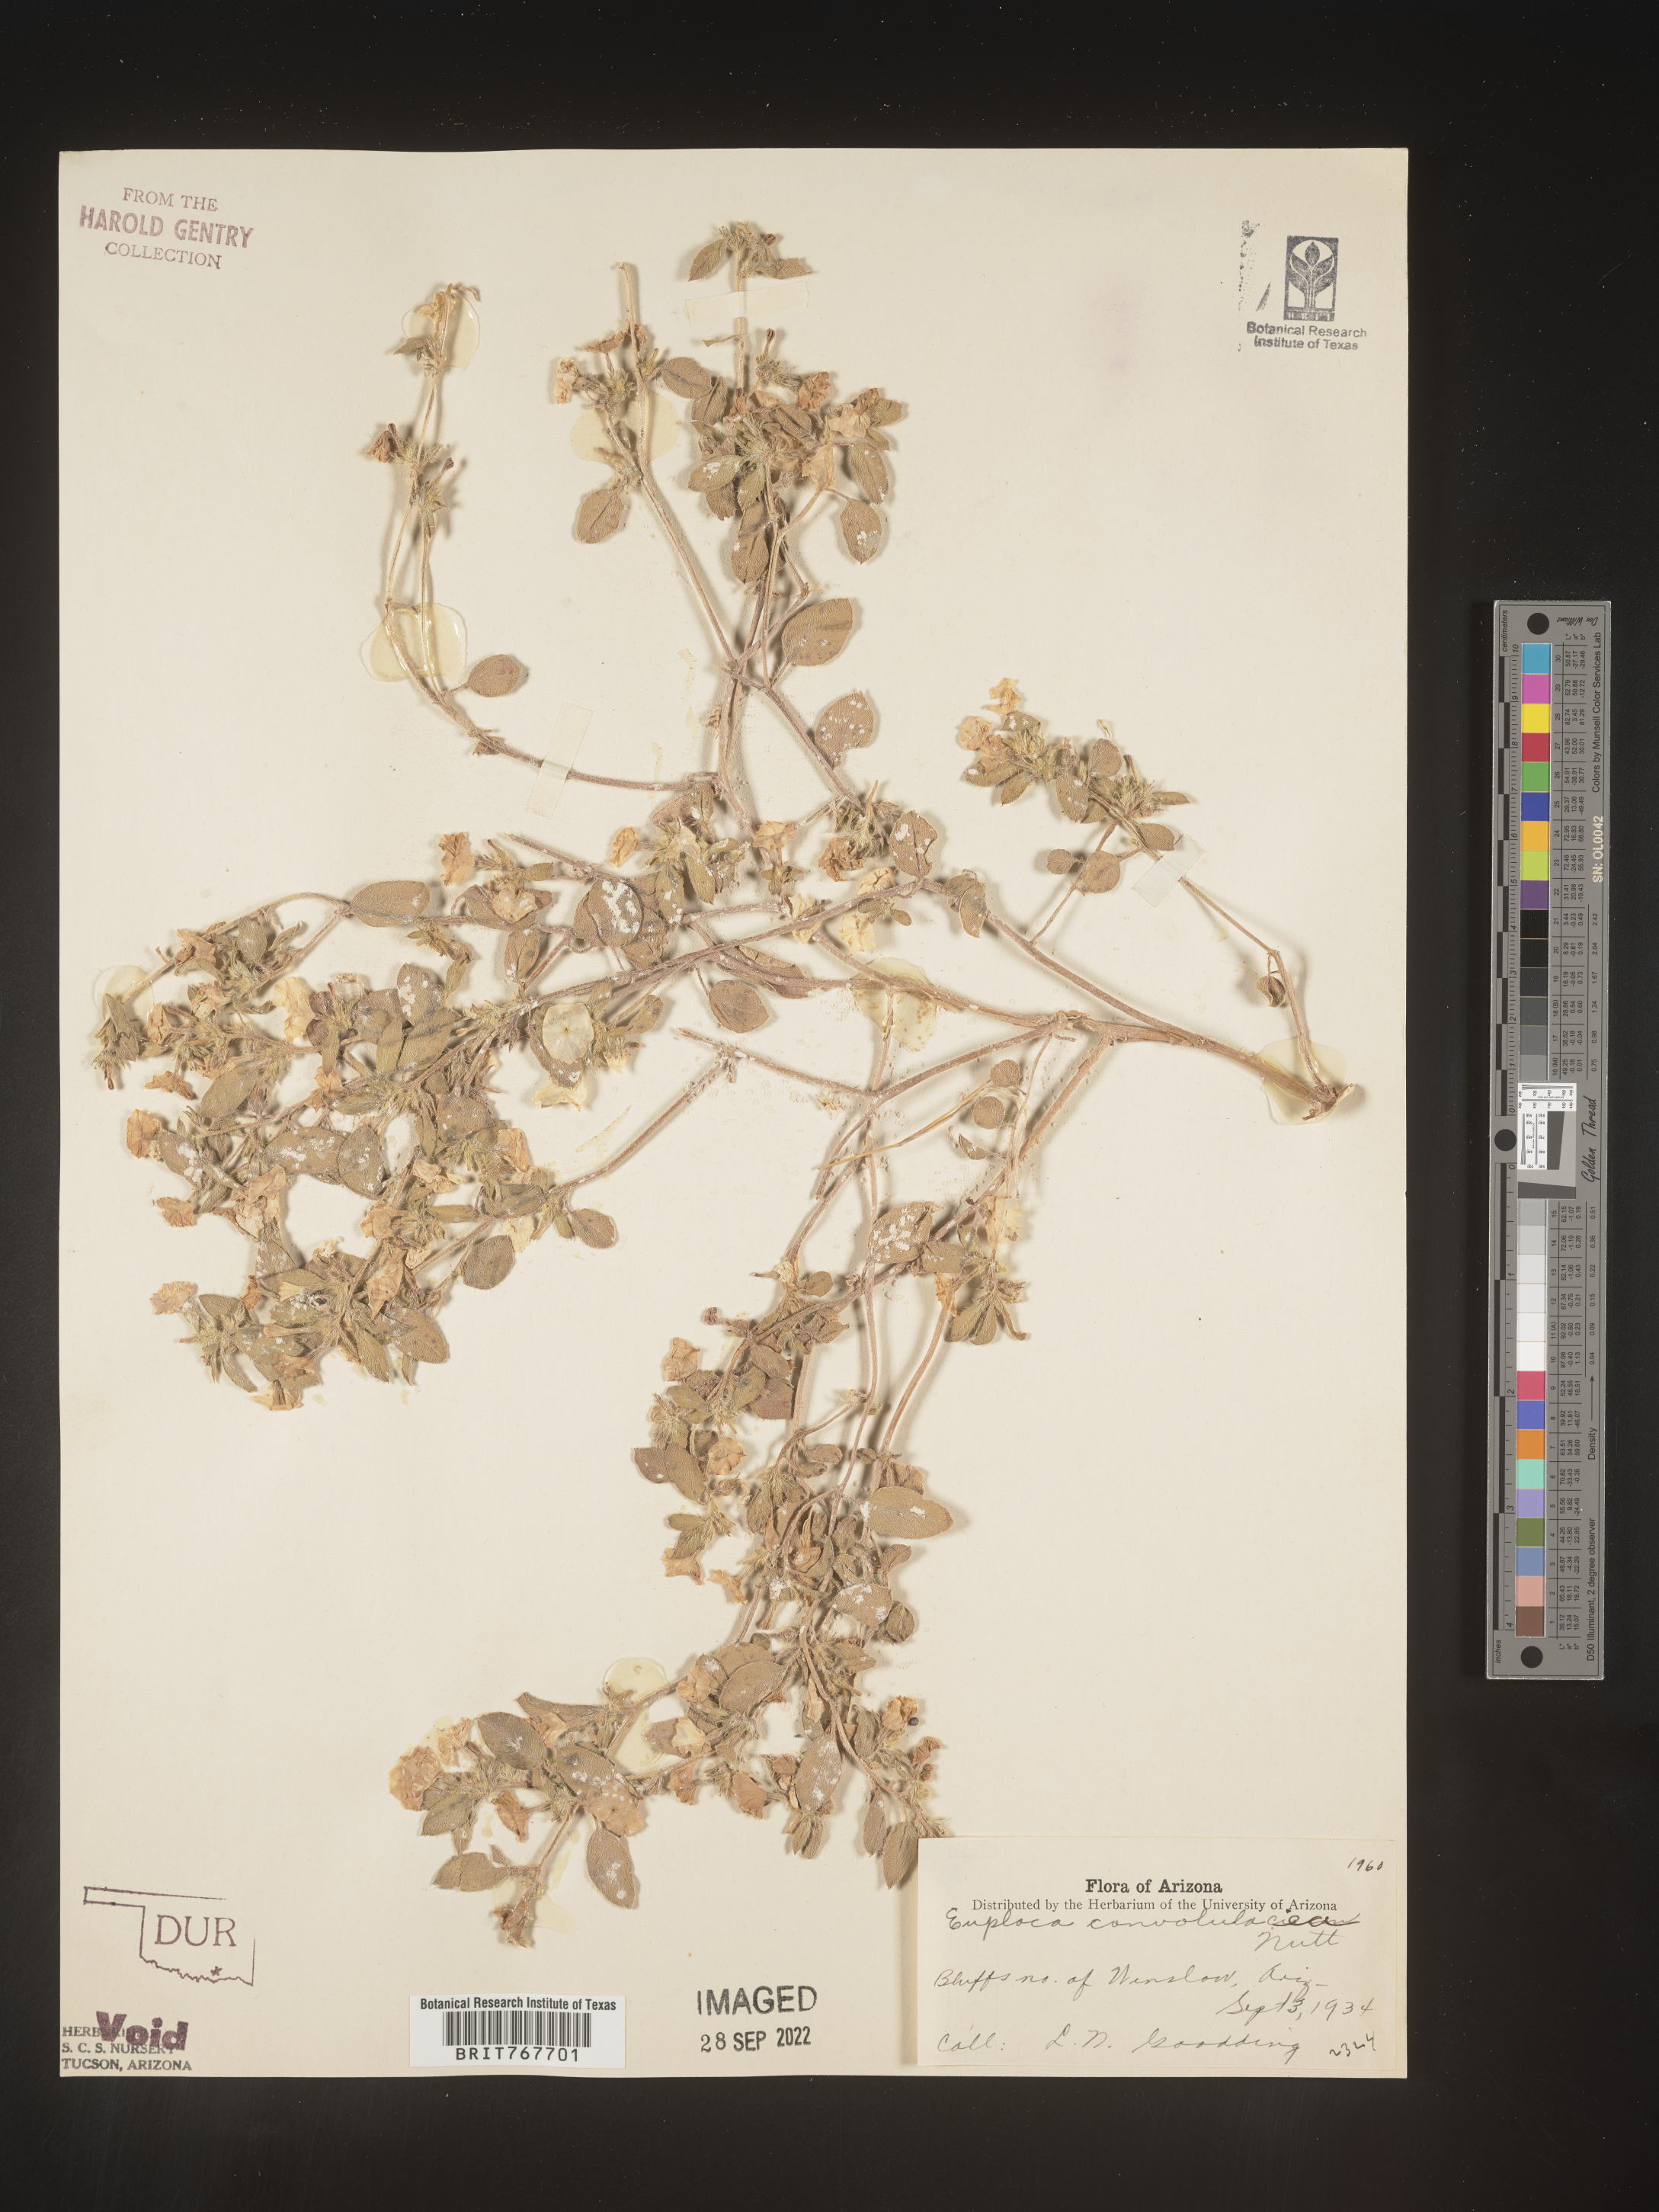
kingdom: Plantae
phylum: Tracheophyta
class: Magnoliopsida
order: Boraginales
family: Heliotropiaceae
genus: Heliotropium
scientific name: Heliotropium
